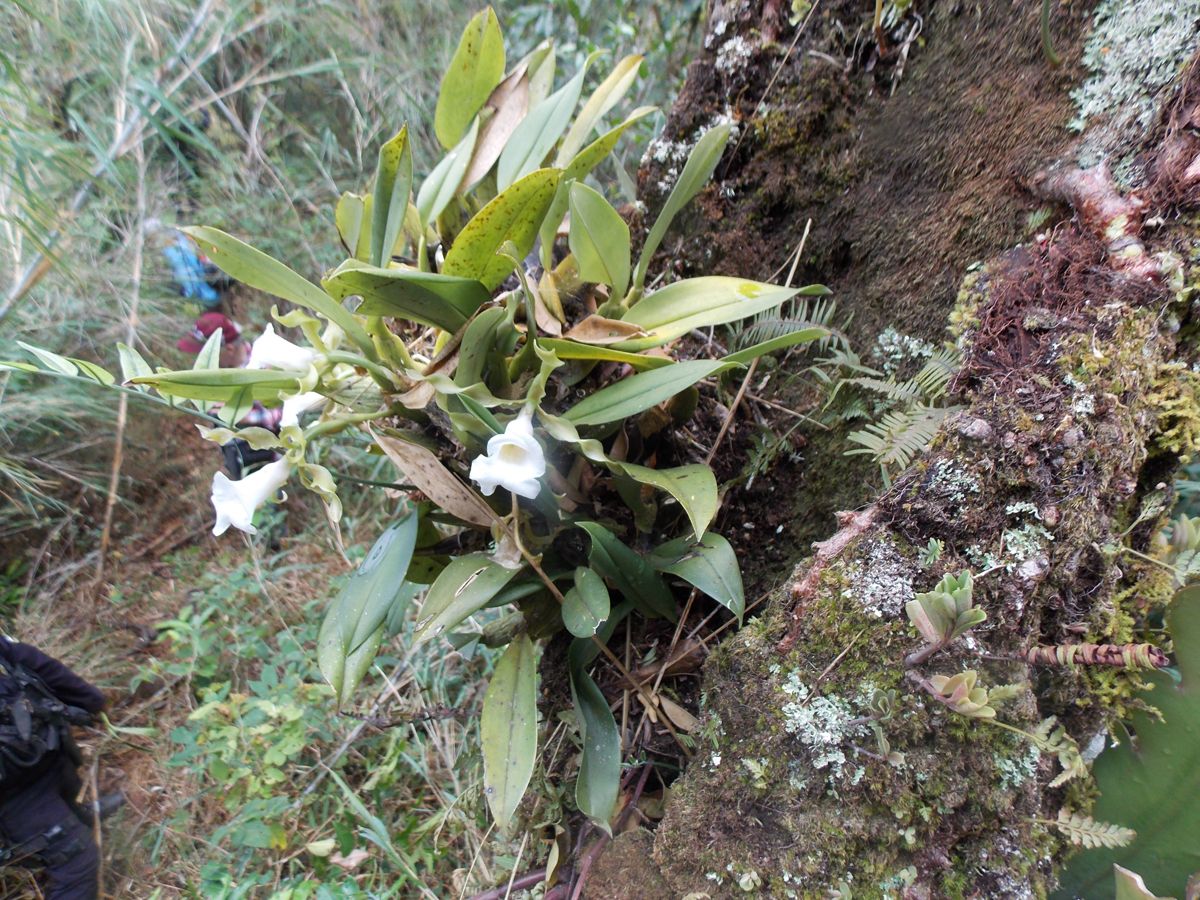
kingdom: Plantae
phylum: Tracheophyta
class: Liliopsida
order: Asparagales
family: Orchidaceae
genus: Trichopilia
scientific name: Trichopilia tortilis
